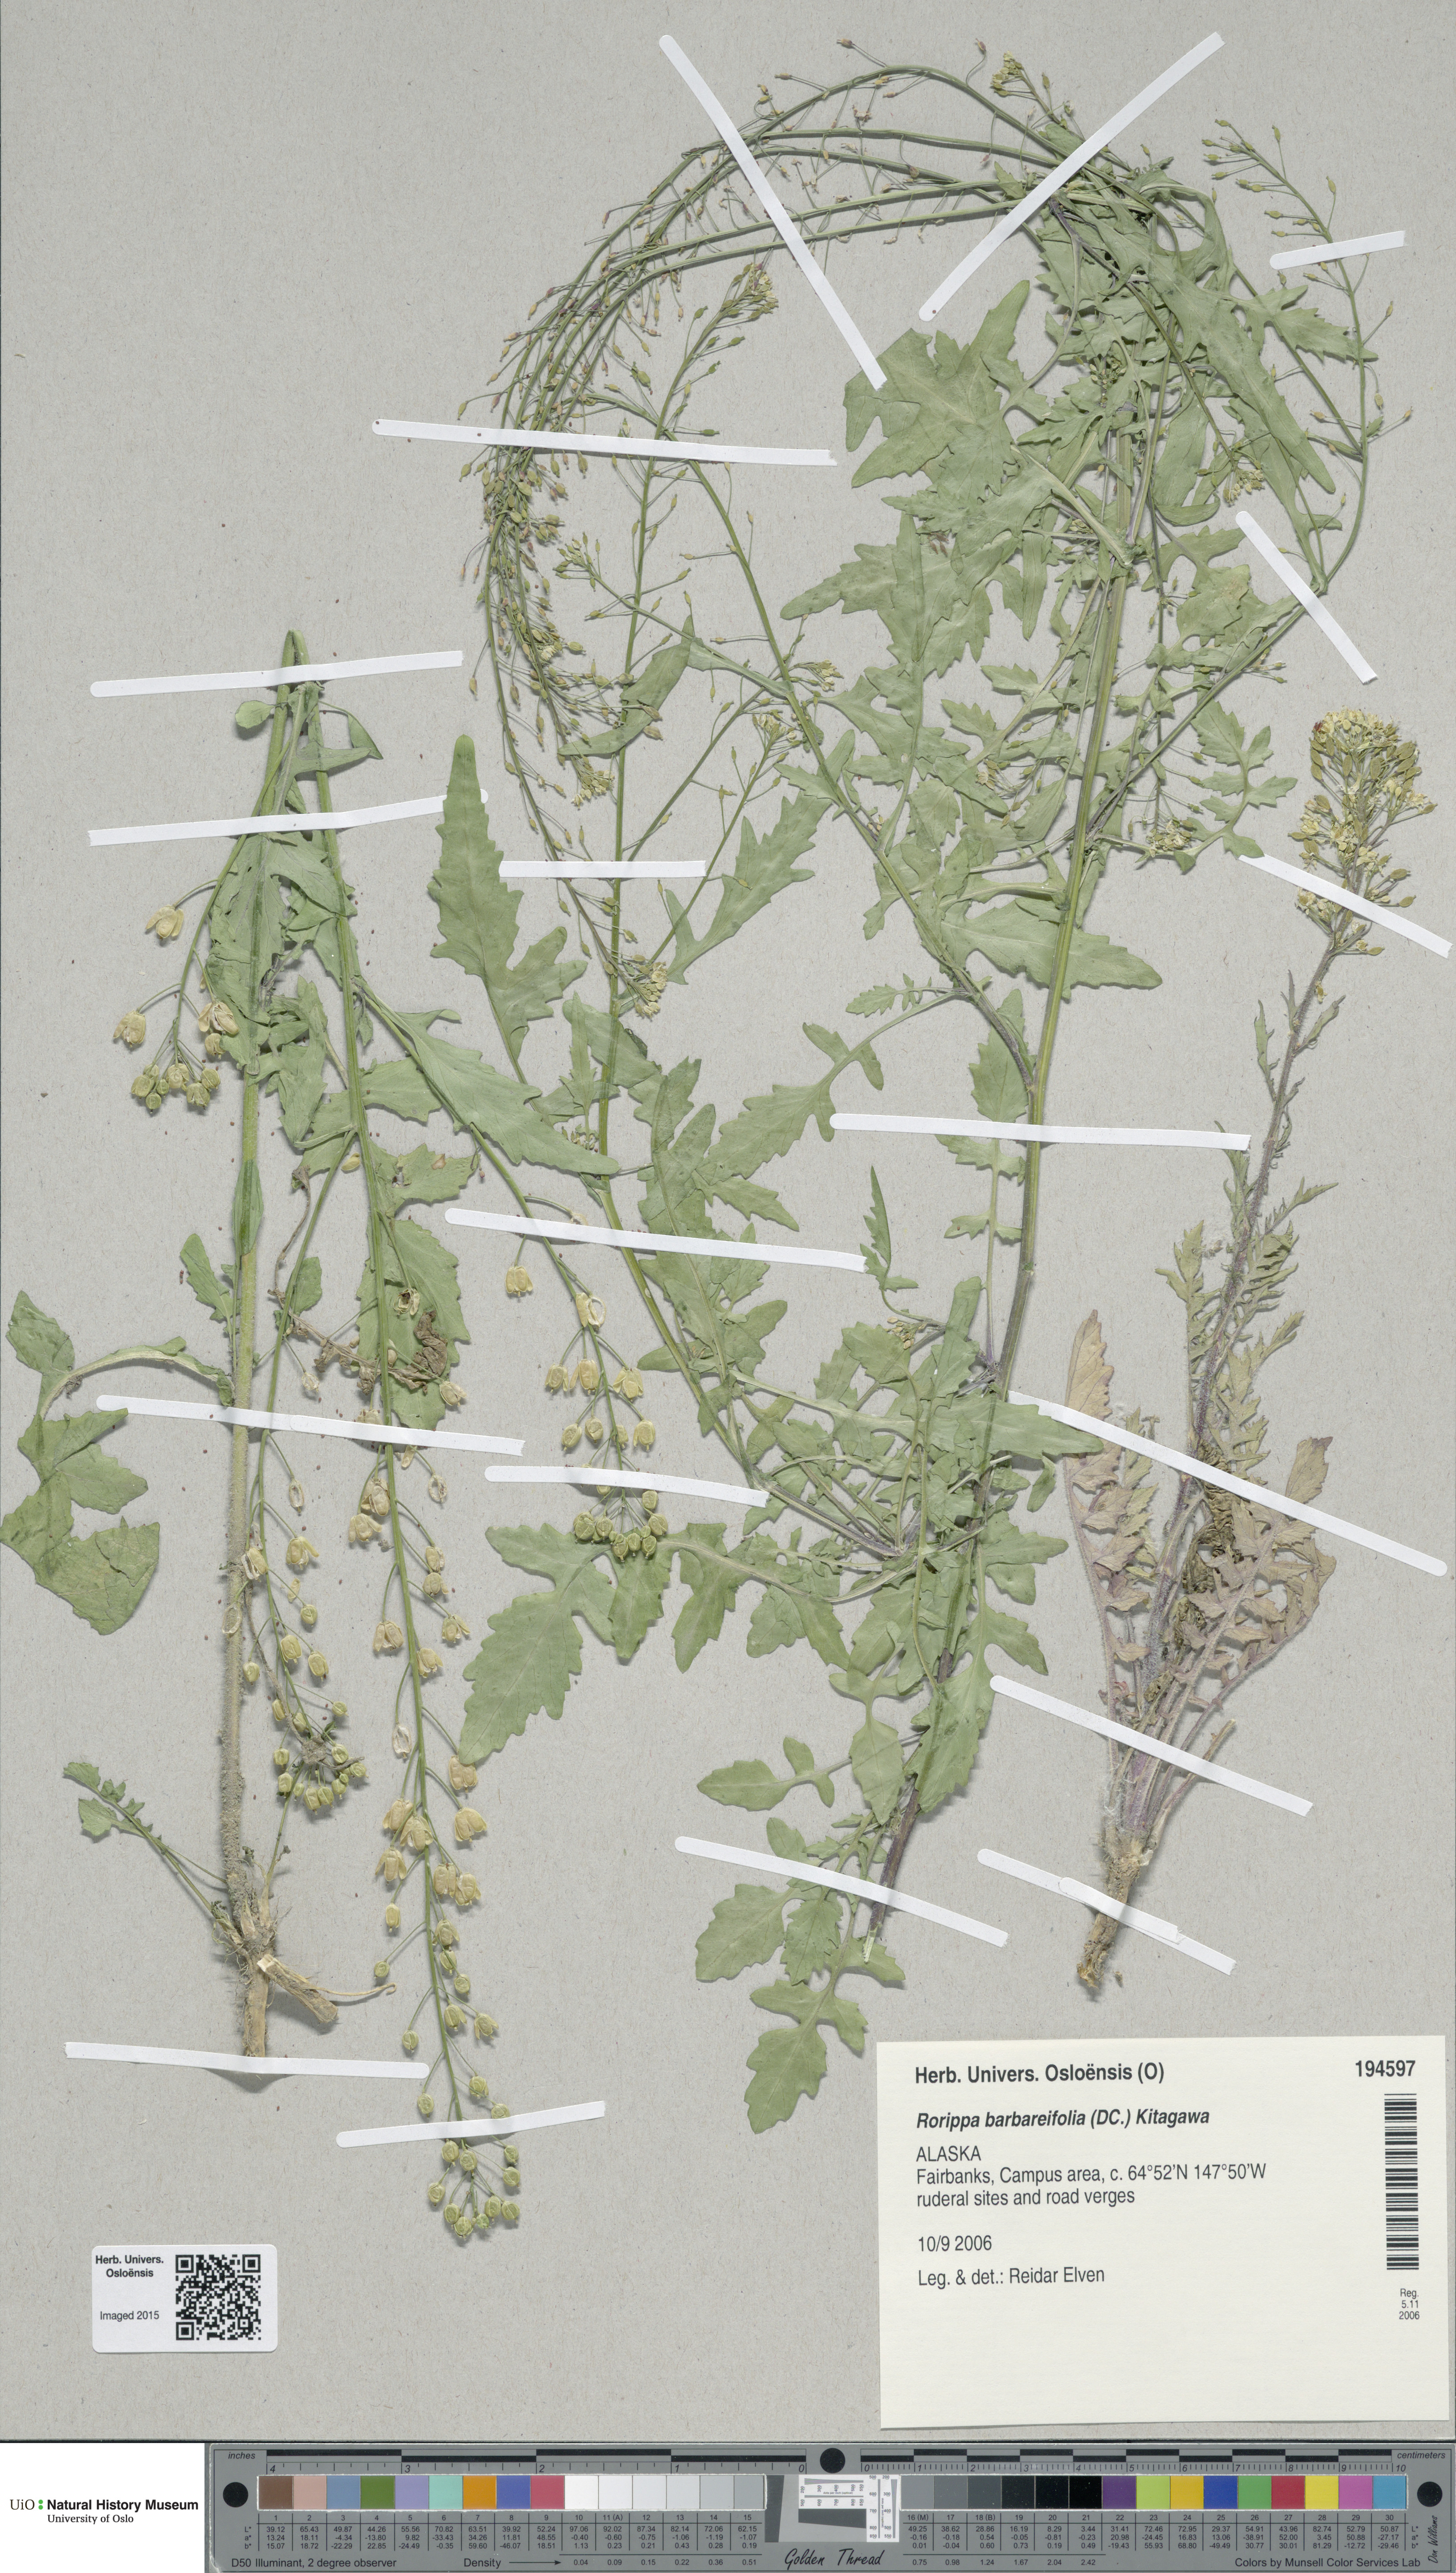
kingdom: Plantae
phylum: Tracheophyta
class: Magnoliopsida
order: Brassicales
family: Brassicaceae
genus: Rorippa
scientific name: Rorippa barbareifolia
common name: Hoary yellowcress
